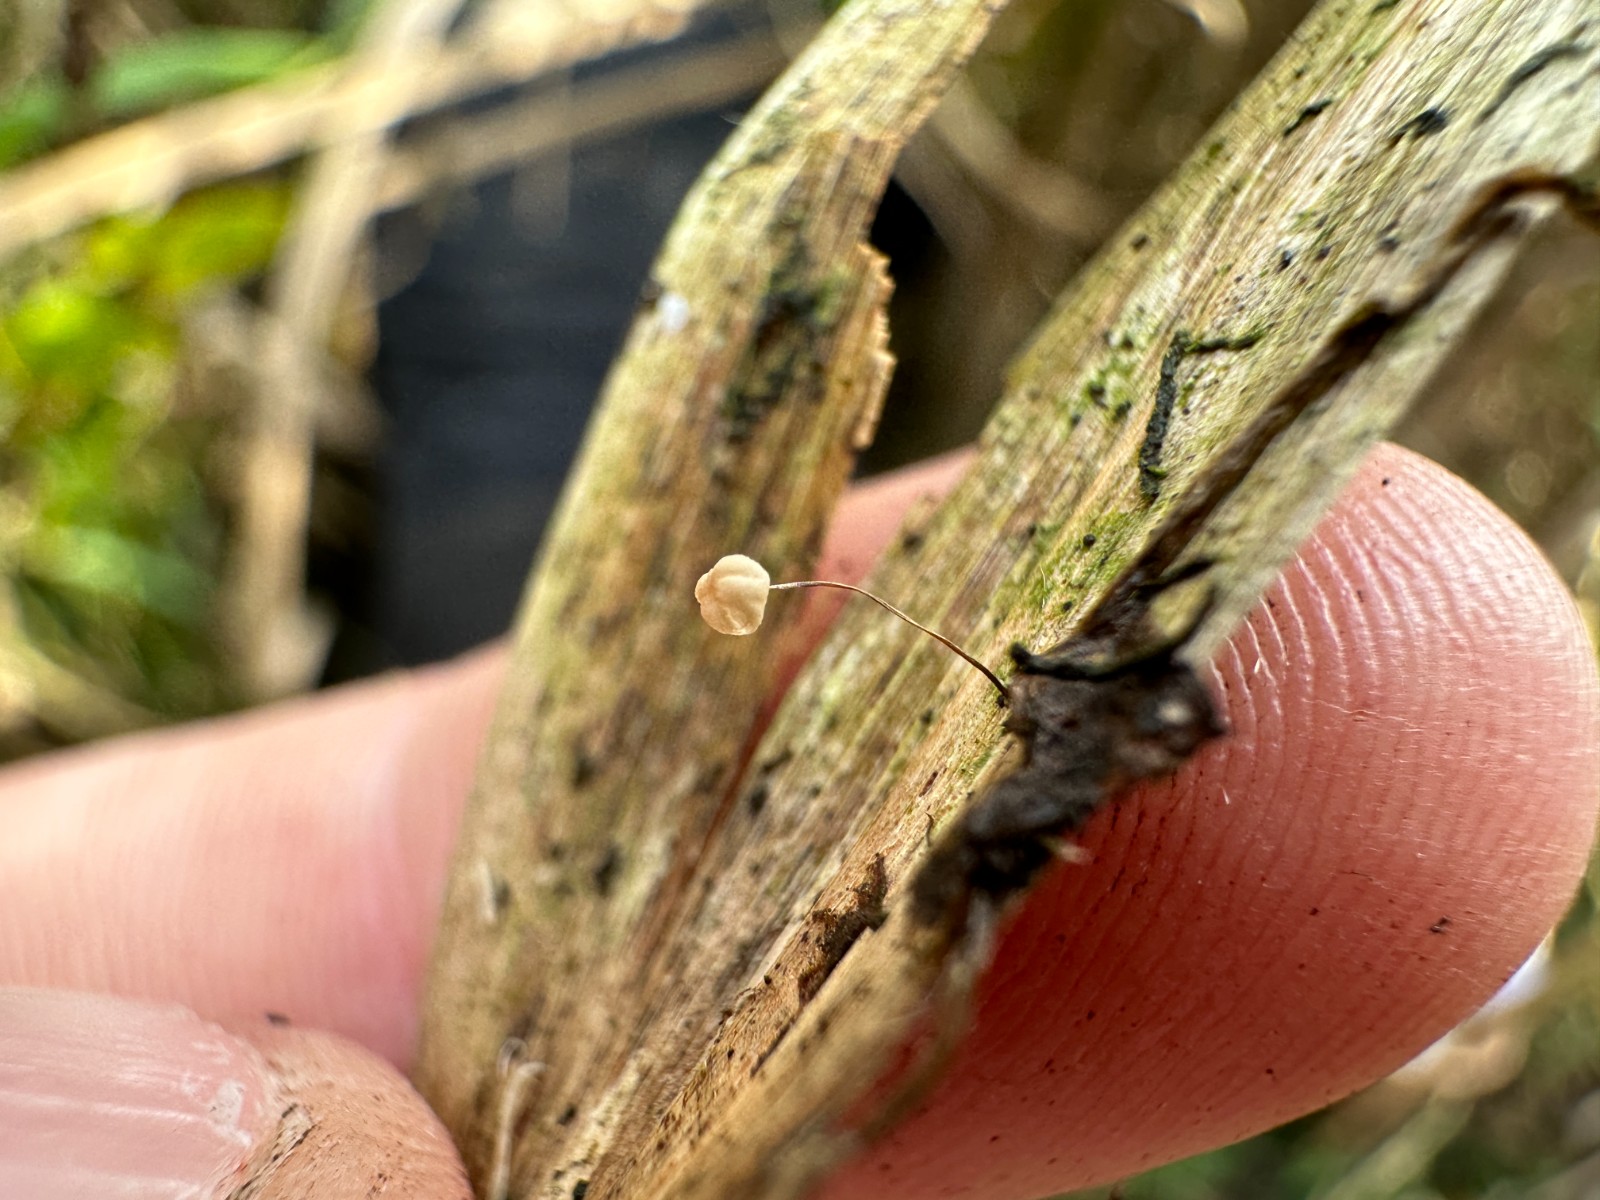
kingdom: Fungi
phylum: Basidiomycota
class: Agaricomycetes
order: Agaricales
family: Marasmiaceae
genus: Marasmius
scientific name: Marasmius limosus
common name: kær-bruskhat
